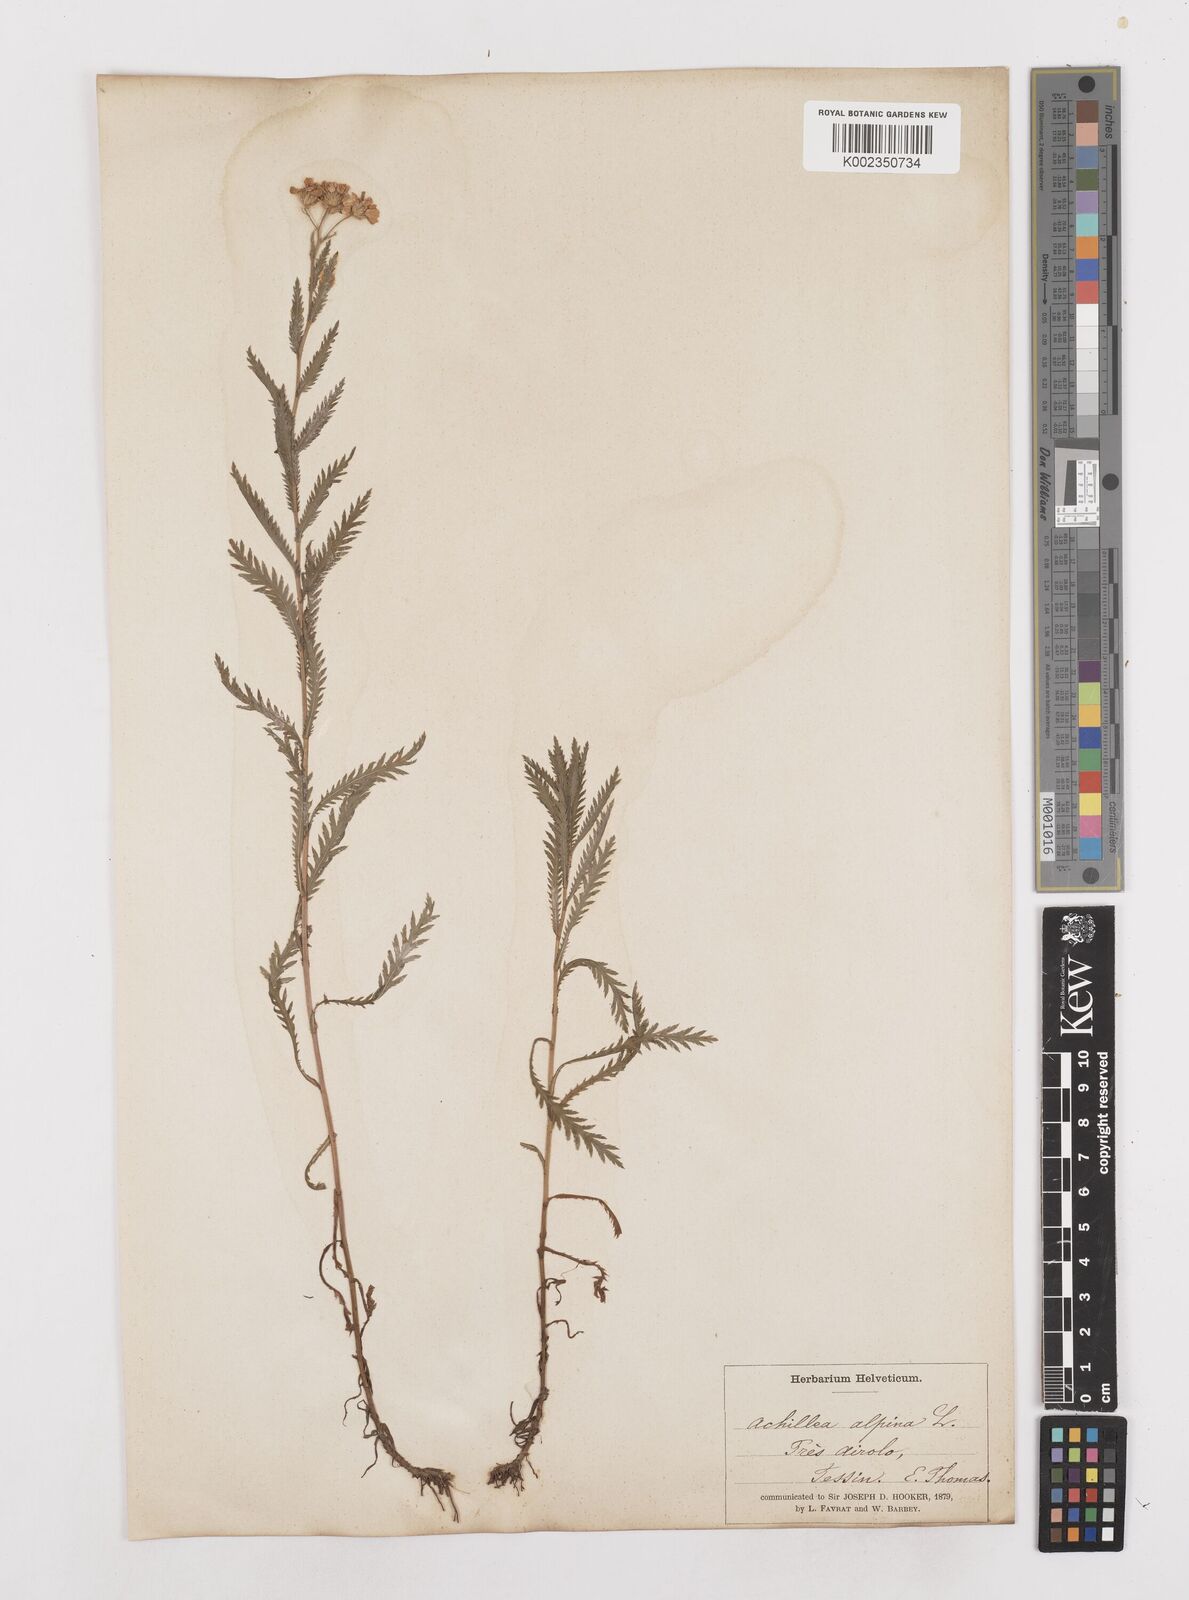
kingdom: Plantae
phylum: Tracheophyta
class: Magnoliopsida
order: Asterales
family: Asteraceae
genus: Achillea
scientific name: Achillea impatiens
